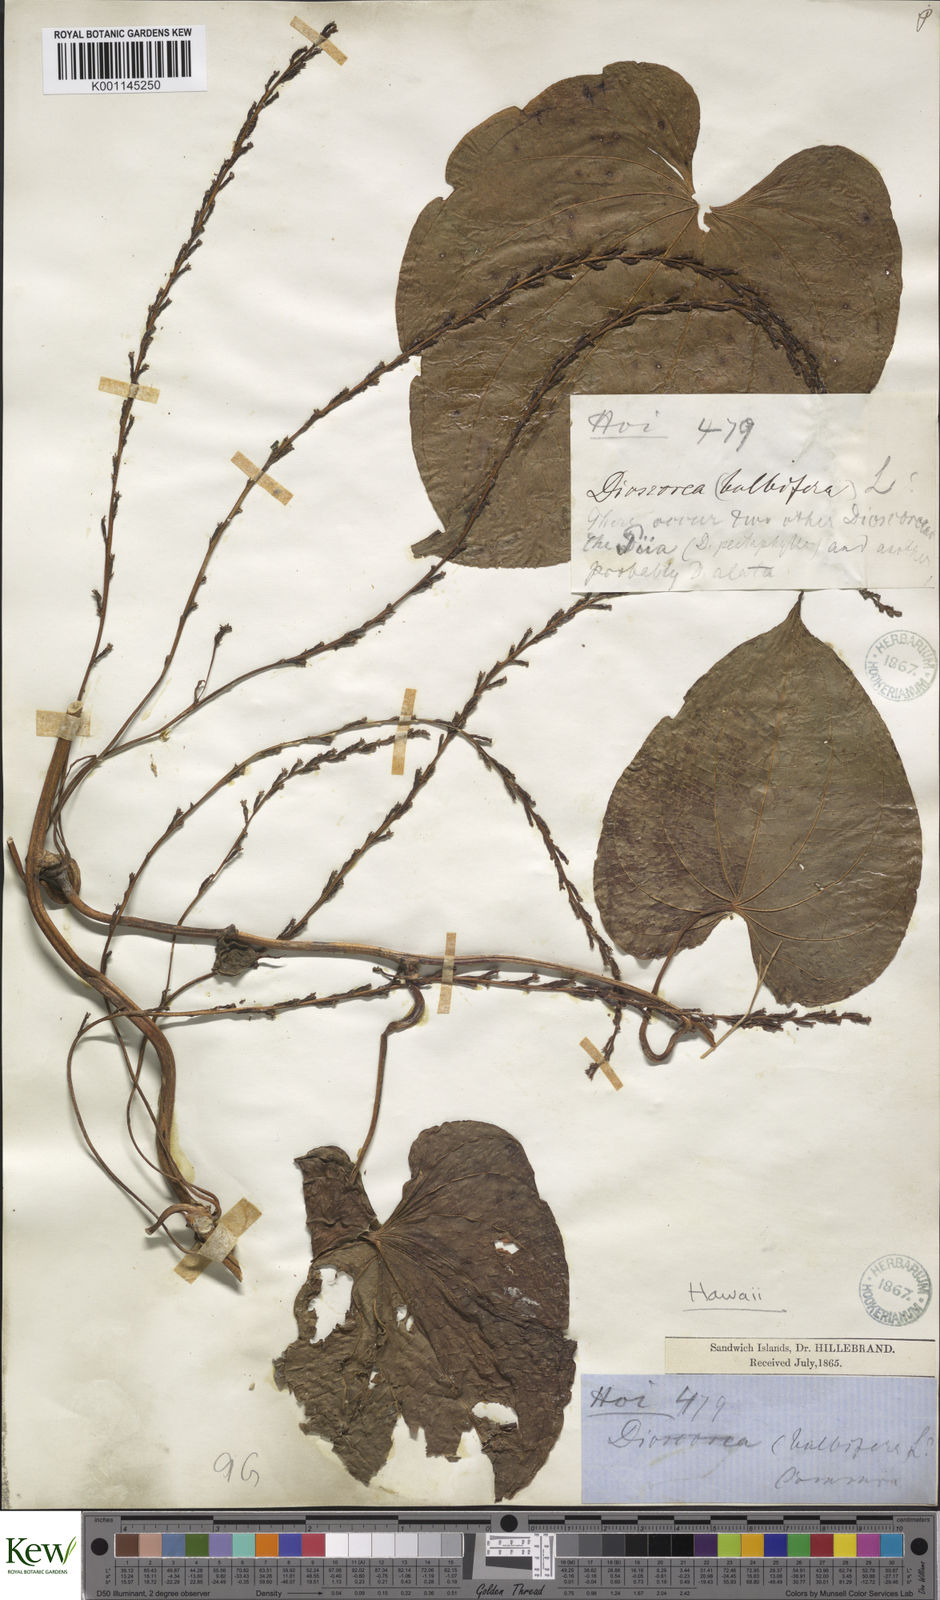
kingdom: Plantae
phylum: Tracheophyta
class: Liliopsida
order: Dioscoreales
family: Dioscoreaceae
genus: Dioscorea
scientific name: Dioscorea bulbifera
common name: Air yam
